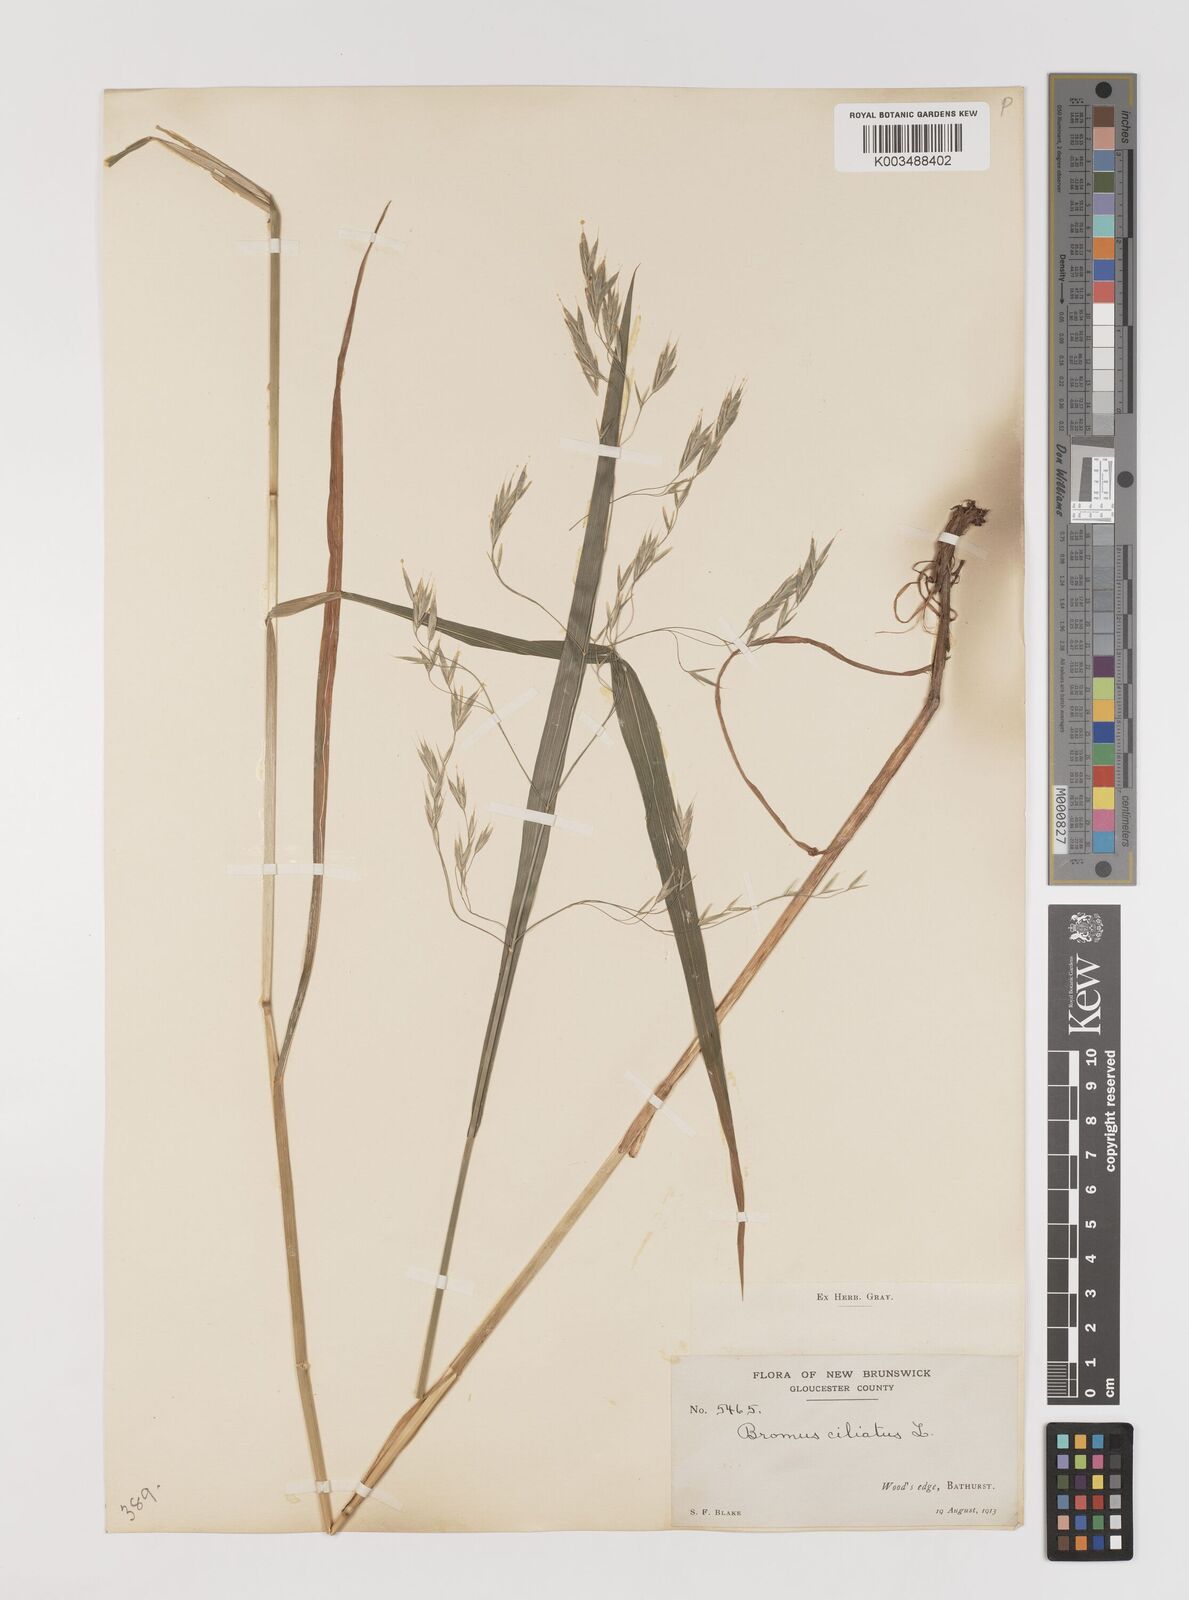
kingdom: Plantae
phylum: Tracheophyta
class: Liliopsida
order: Poales
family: Poaceae
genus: Bromus
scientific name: Bromus ciliatus
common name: Fringe brome
